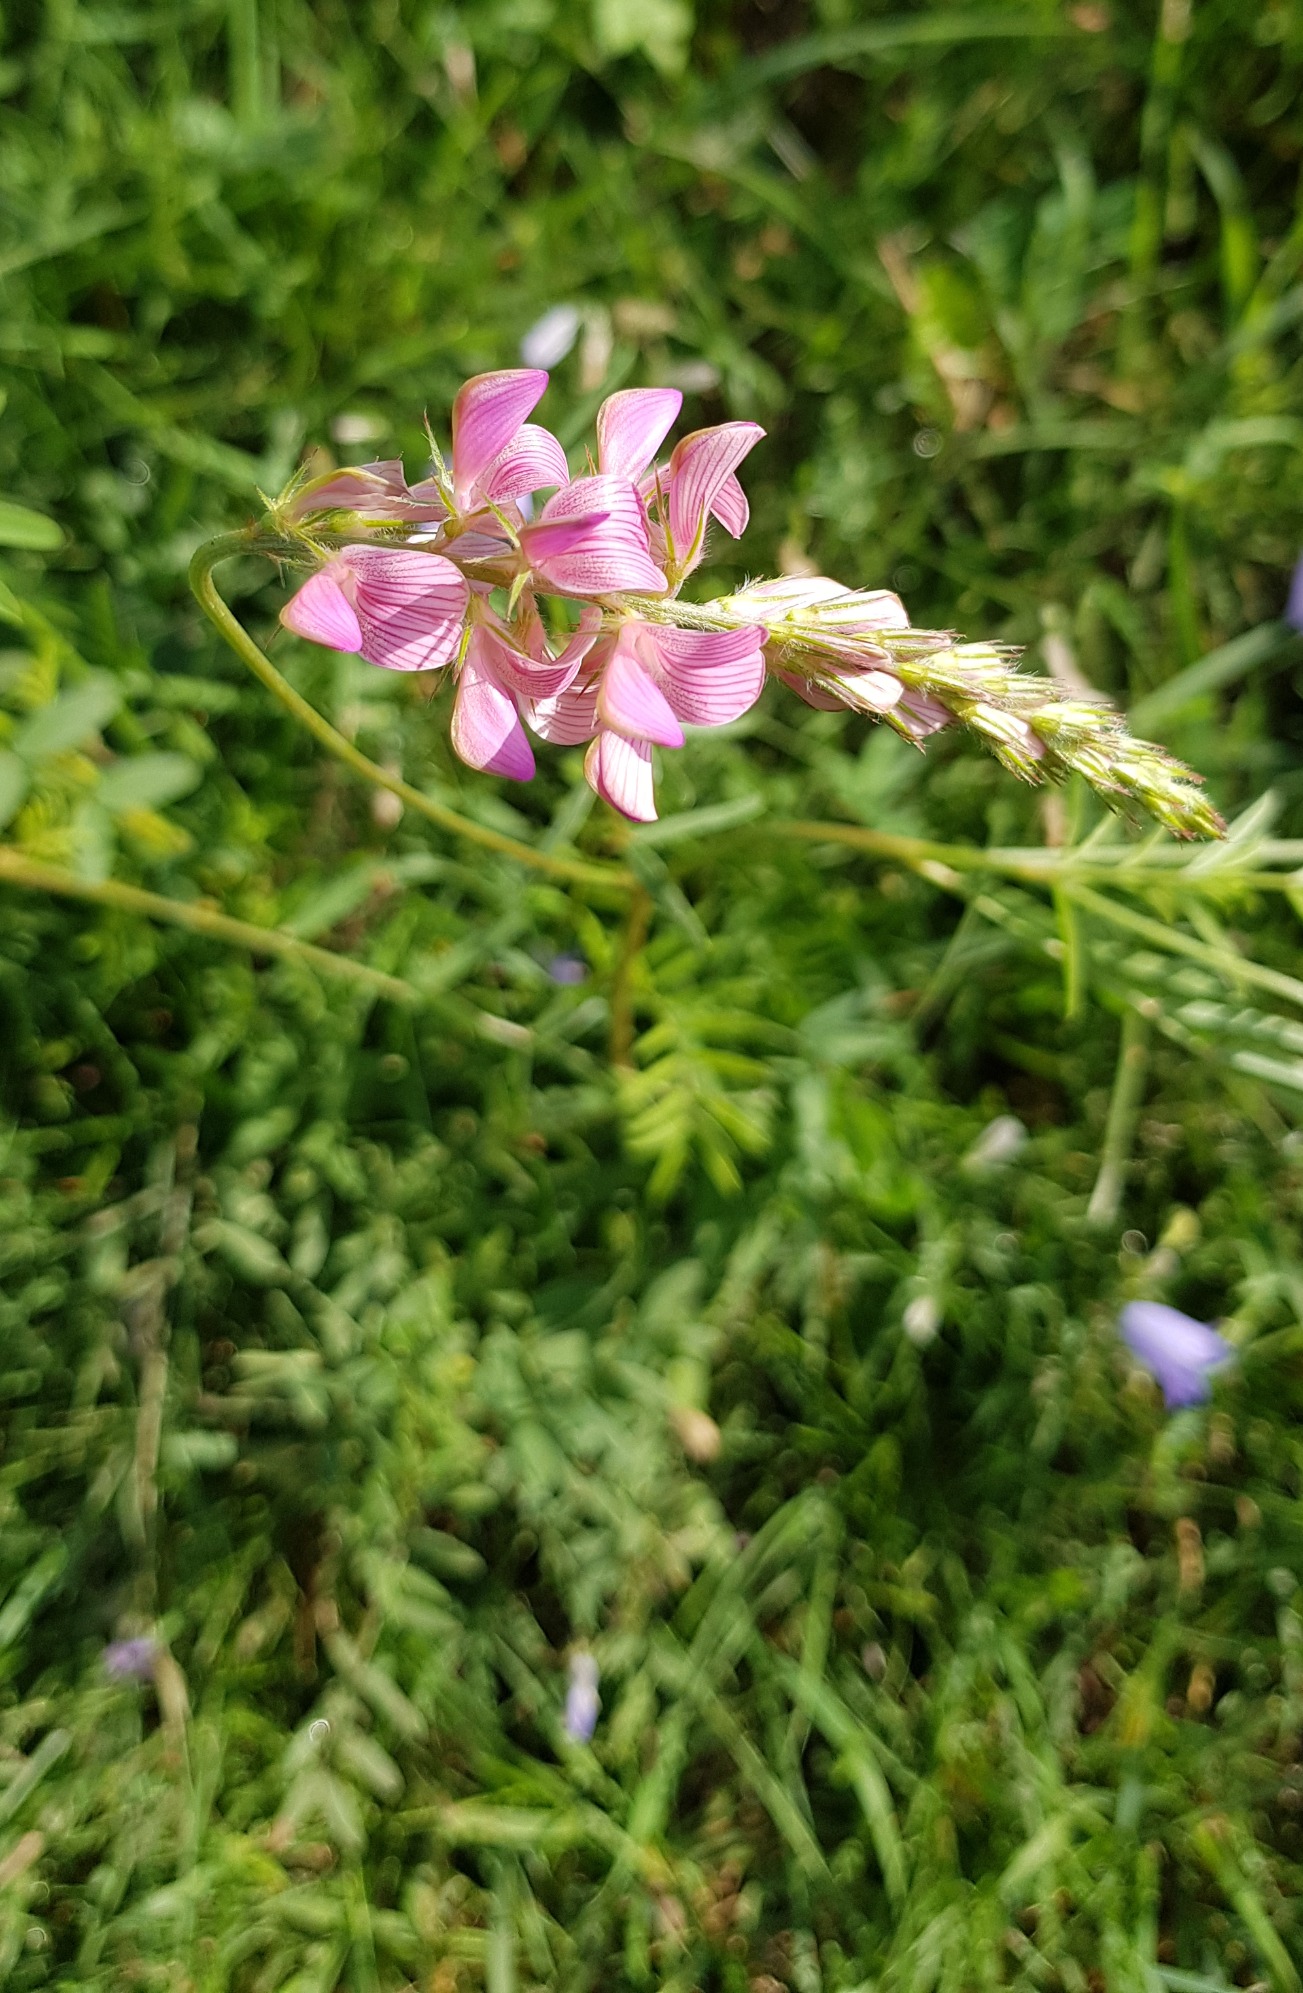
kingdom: Plantae
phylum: Tracheophyta
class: Magnoliopsida
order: Fabales
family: Fabaceae
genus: Onobrychis
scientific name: Onobrychis viciifolia
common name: Esparsette
